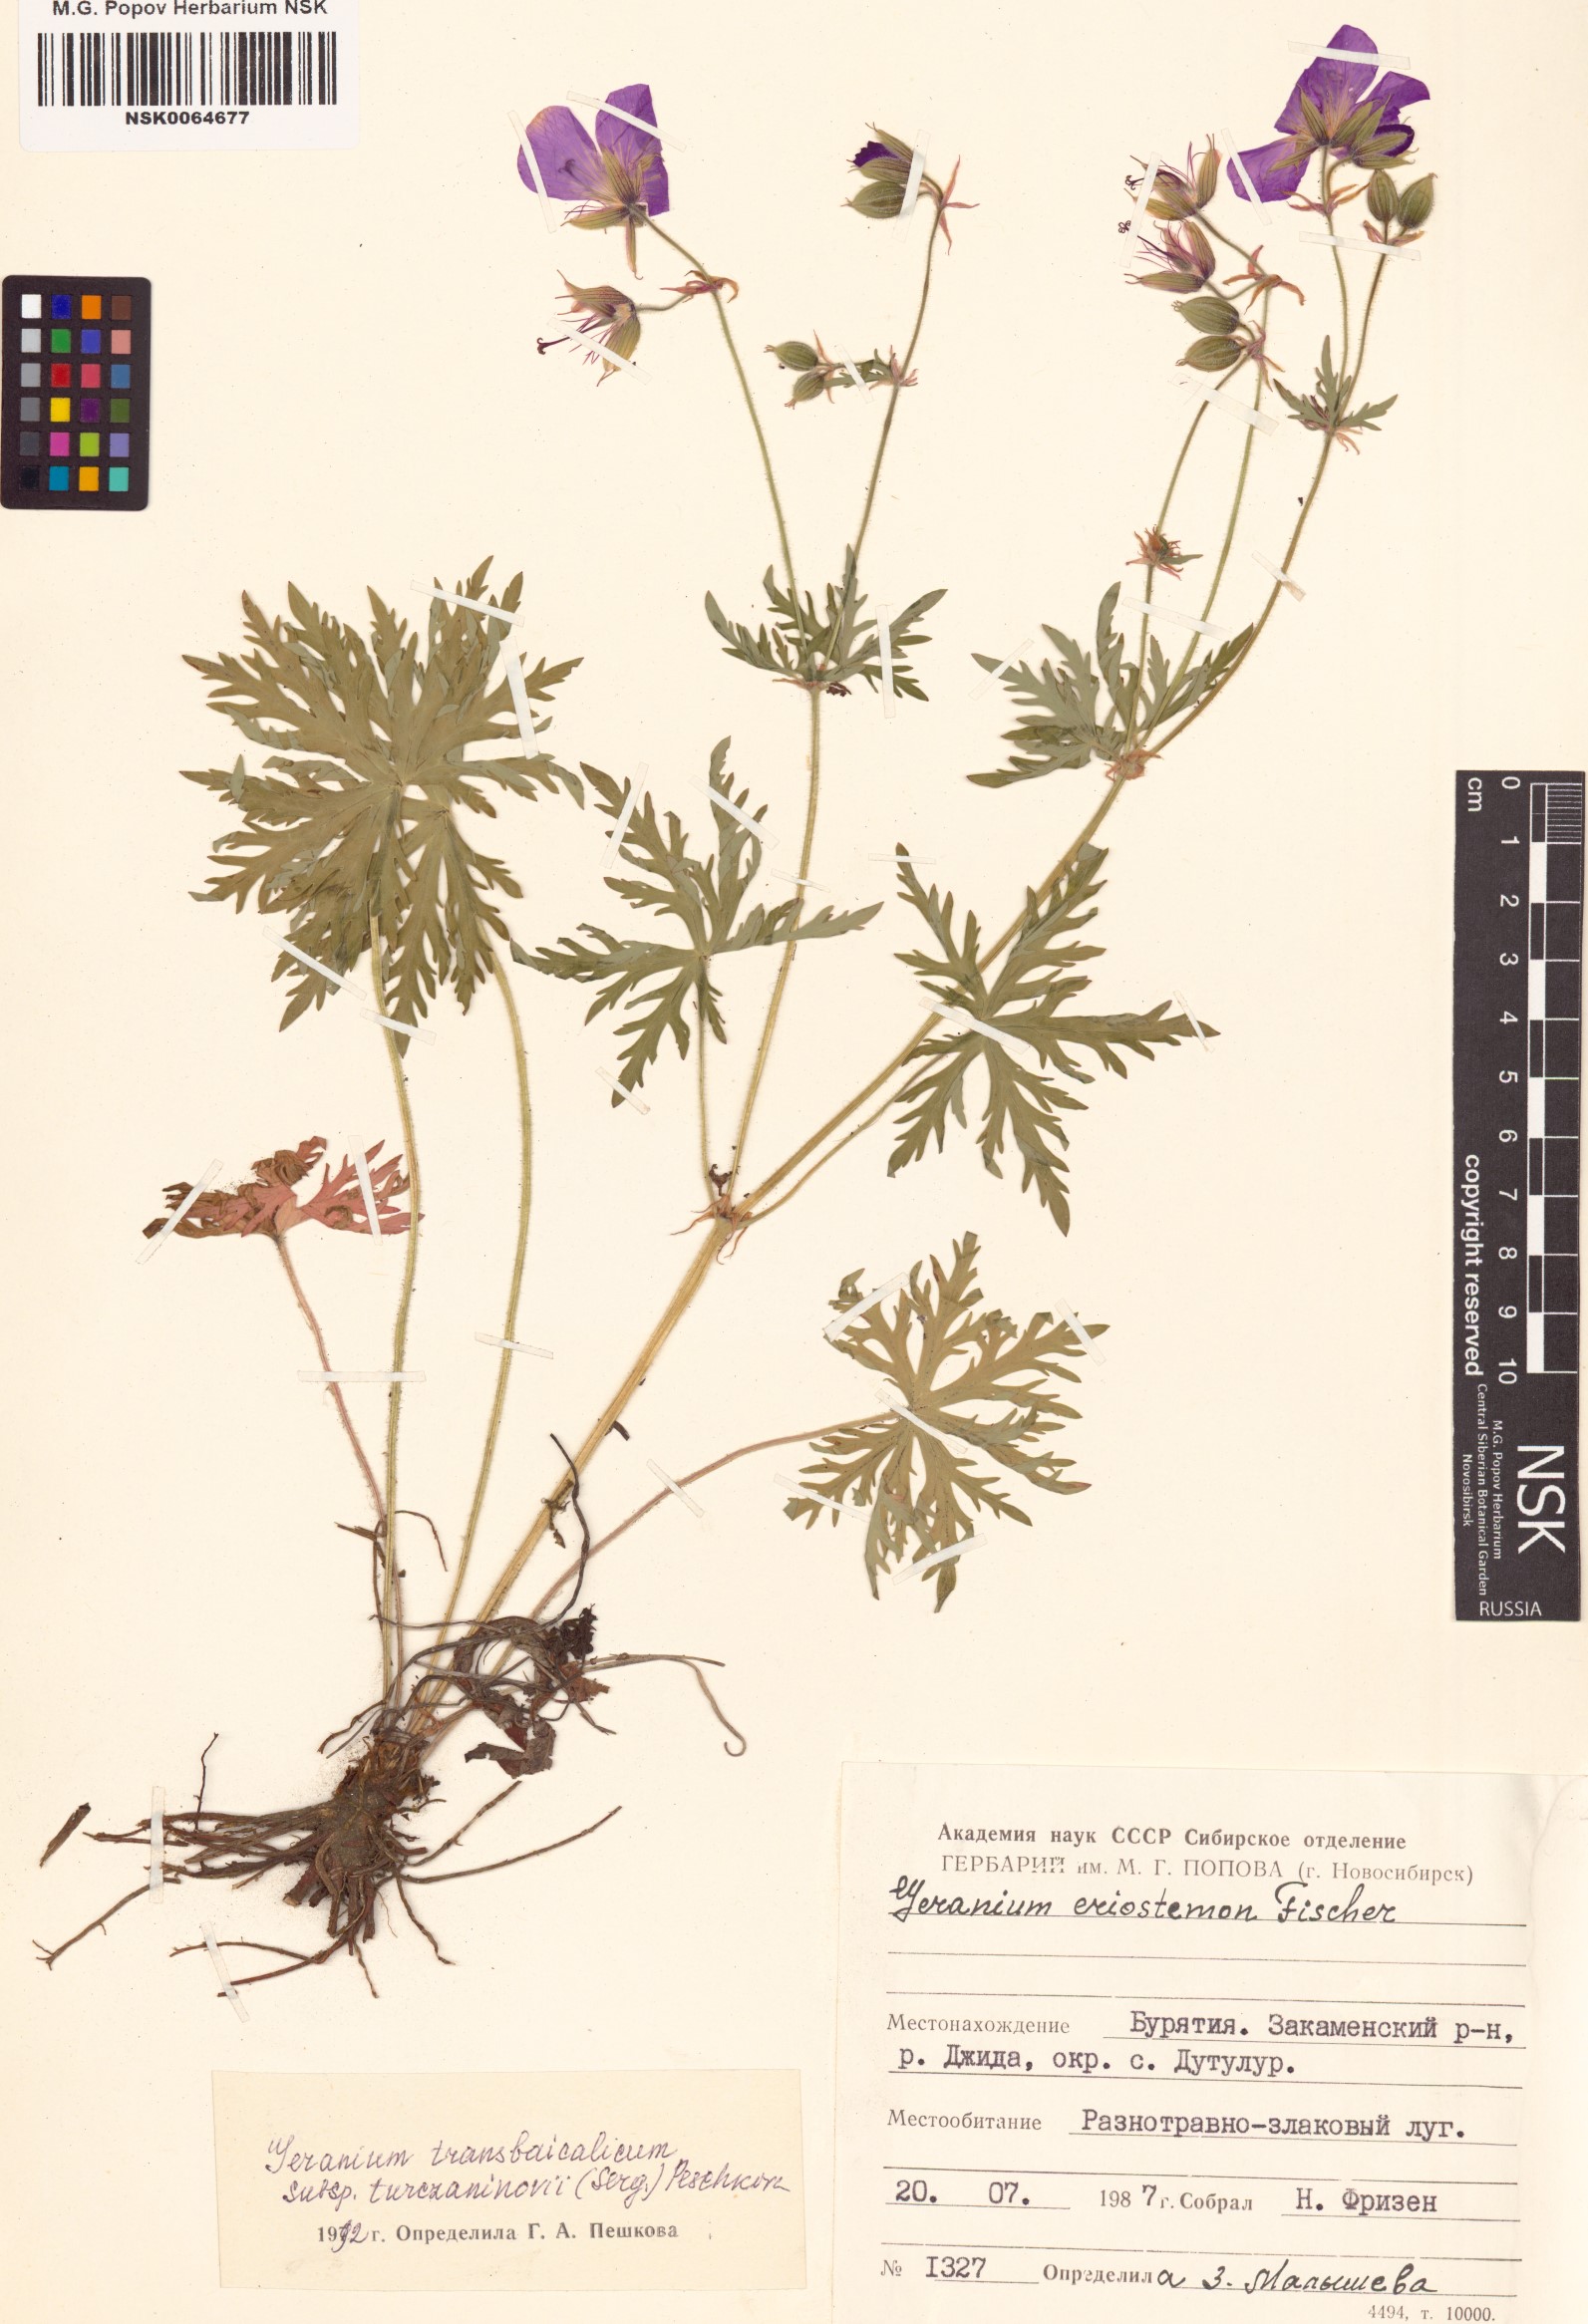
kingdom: Plantae
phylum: Tracheophyta
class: Magnoliopsida
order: Geraniales
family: Geraniaceae
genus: Geranium
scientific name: Geranium pratense
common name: Meadow crane's-bill
